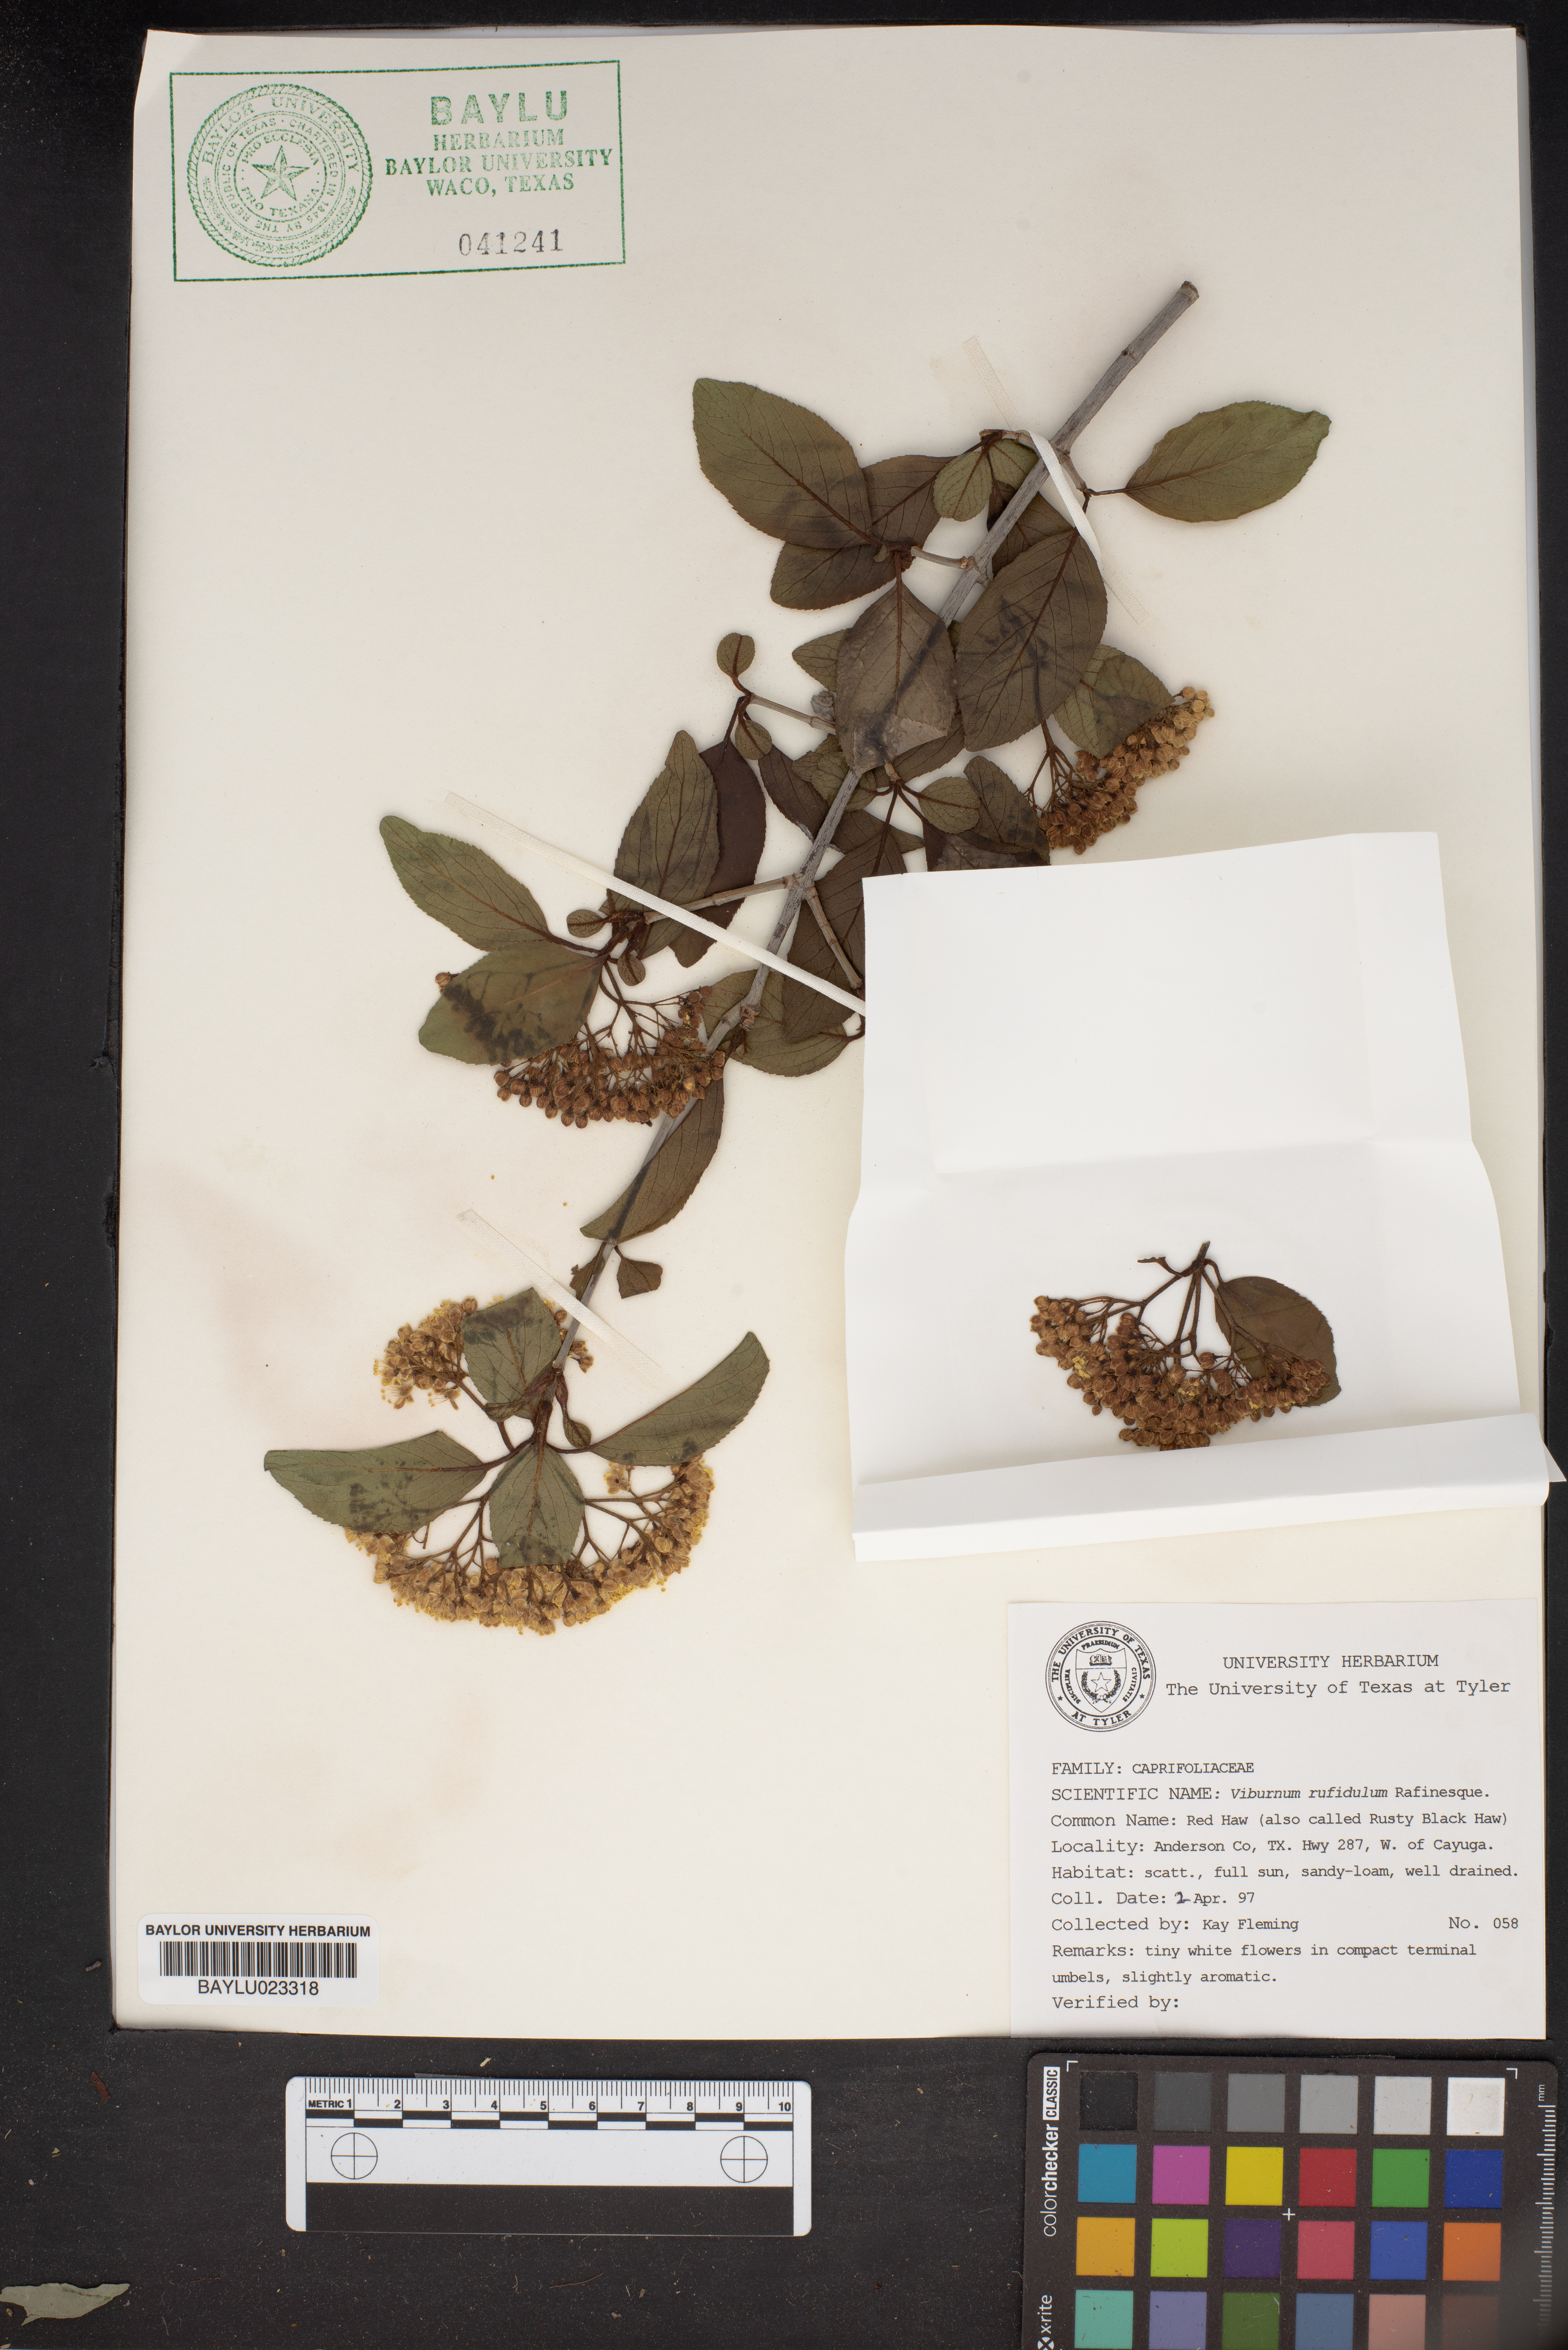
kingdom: Plantae
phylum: Tracheophyta
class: Magnoliopsida
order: Dipsacales
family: Viburnaceae
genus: Viburnum
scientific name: Viburnum rufidulum
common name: Blue haw
